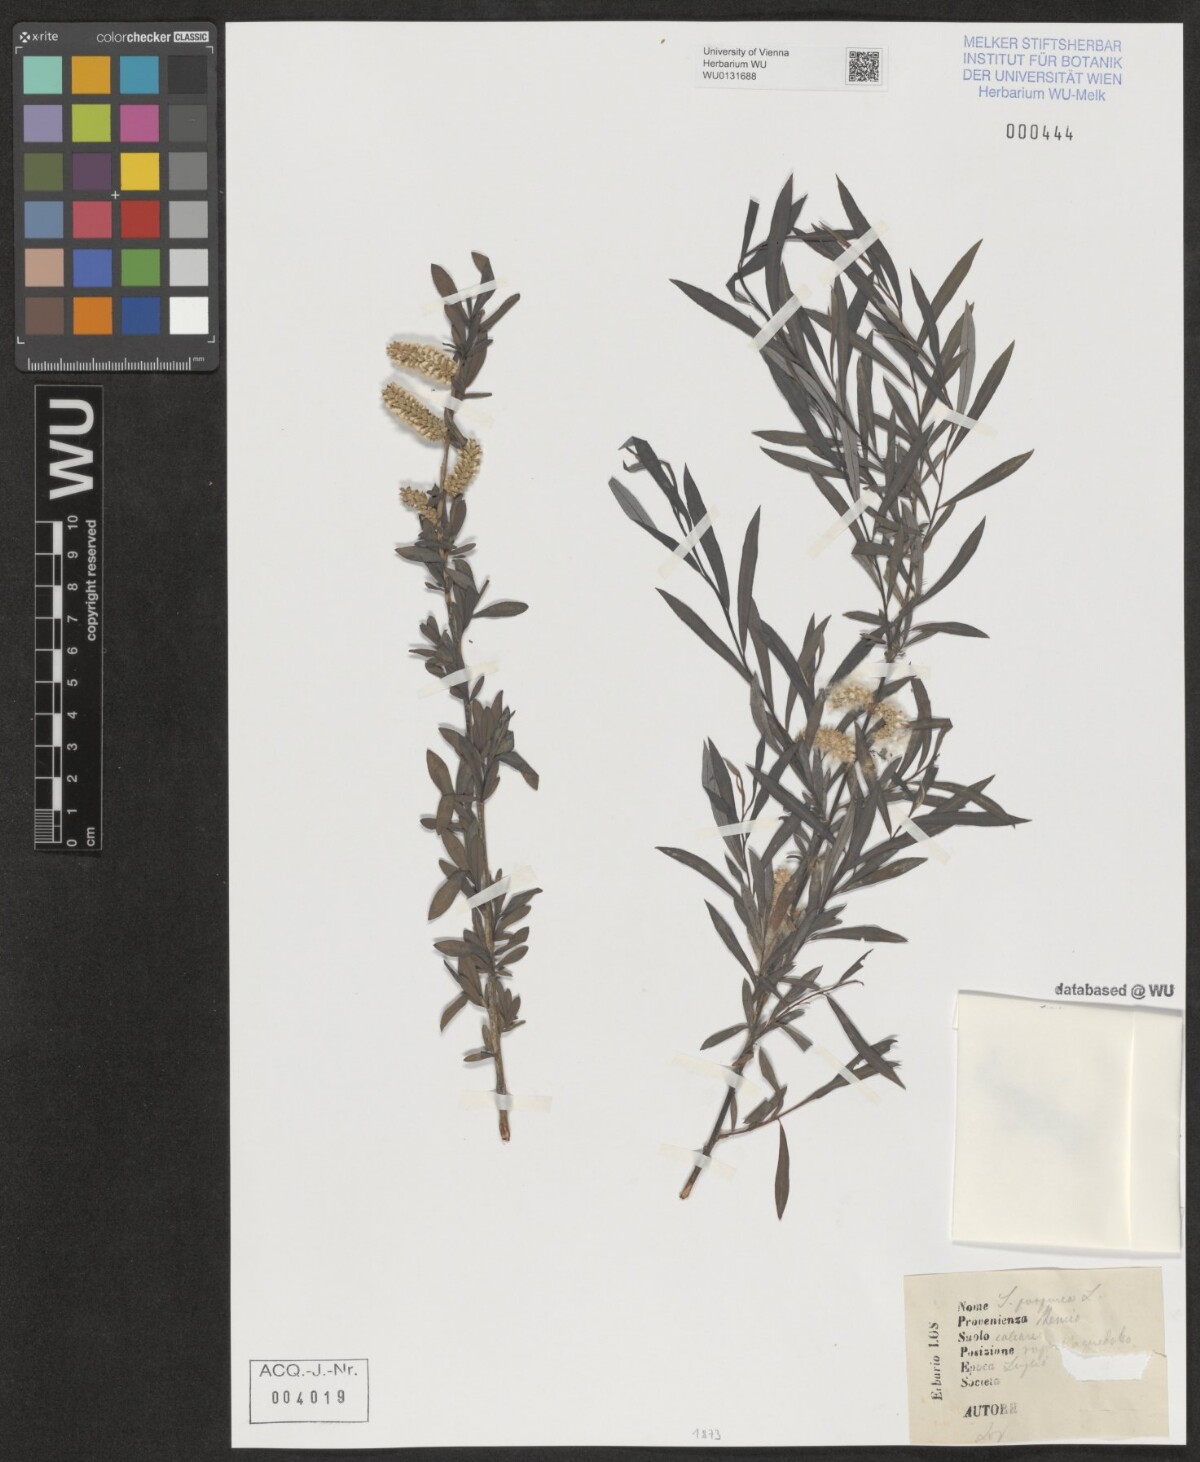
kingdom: Plantae
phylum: Tracheophyta
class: Magnoliopsida
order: Malpighiales
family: Salicaceae
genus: Salix
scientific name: Salix purpurea
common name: Purple willow
